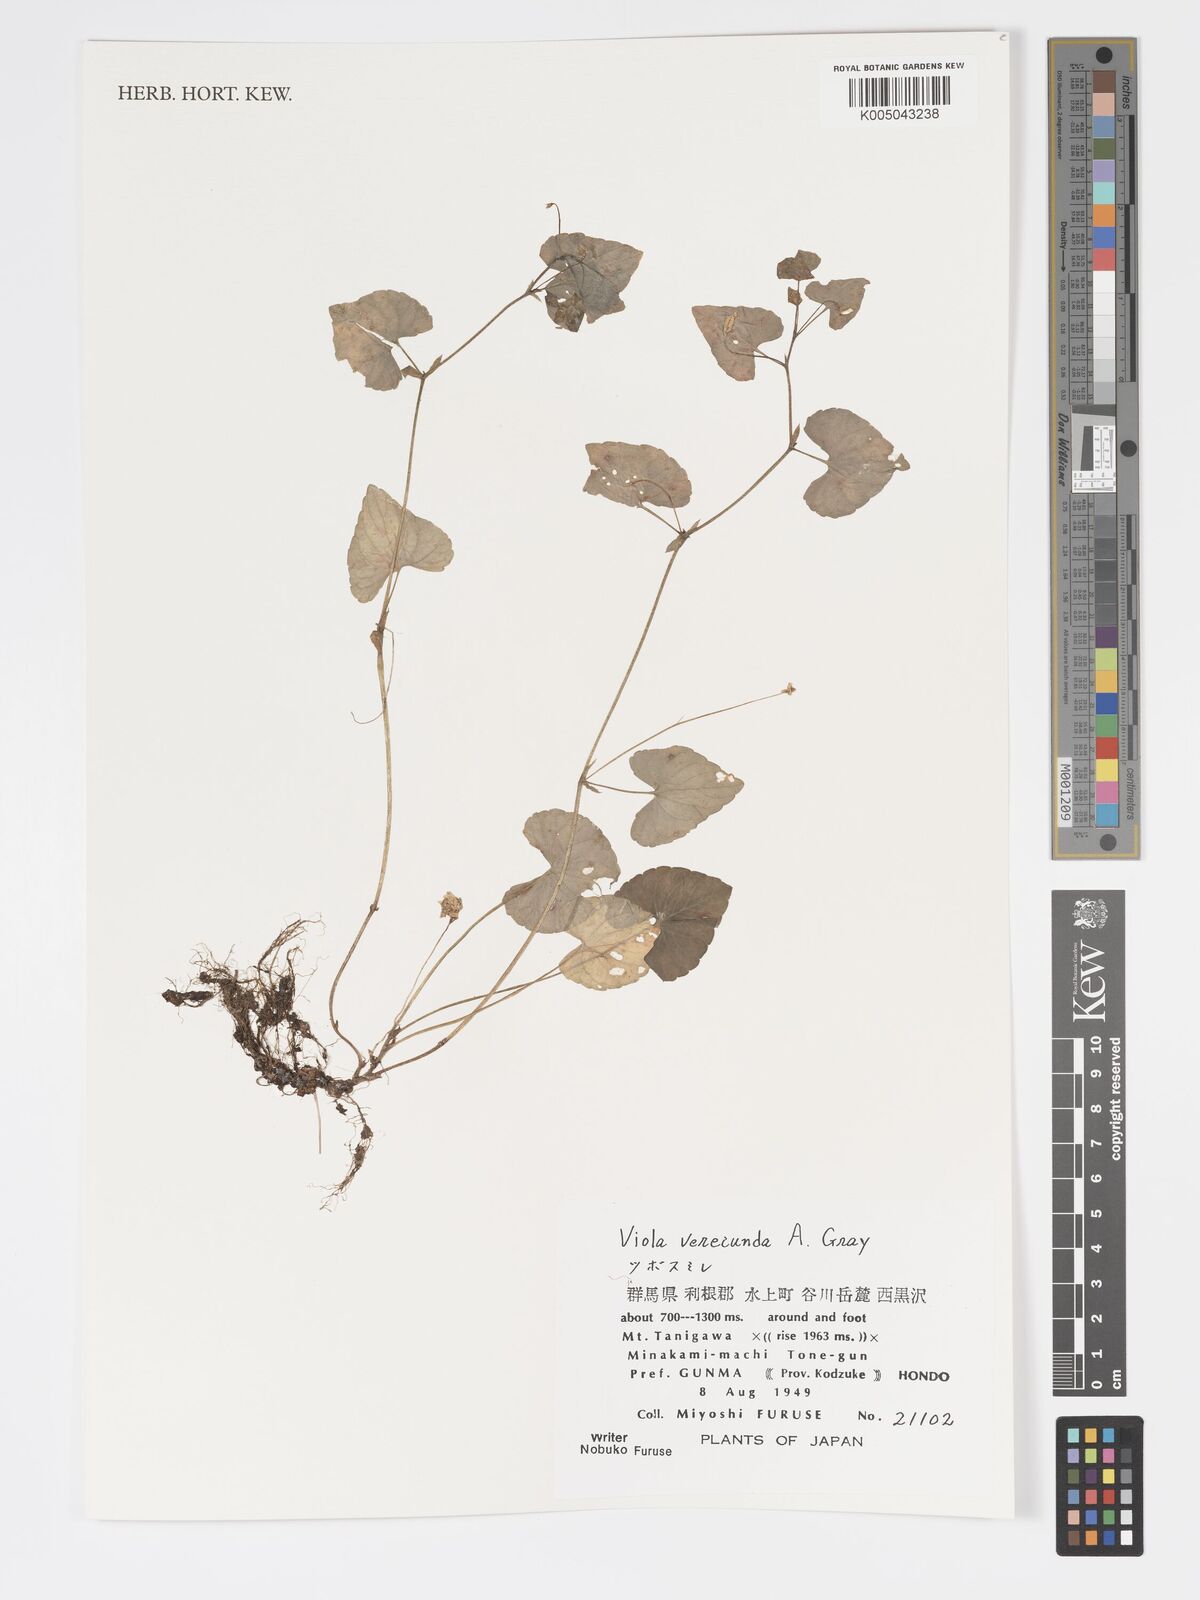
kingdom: Plantae
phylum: Tracheophyta
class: Magnoliopsida
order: Malpighiales
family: Violaceae
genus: Viola
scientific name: Viola hamiltoniana
